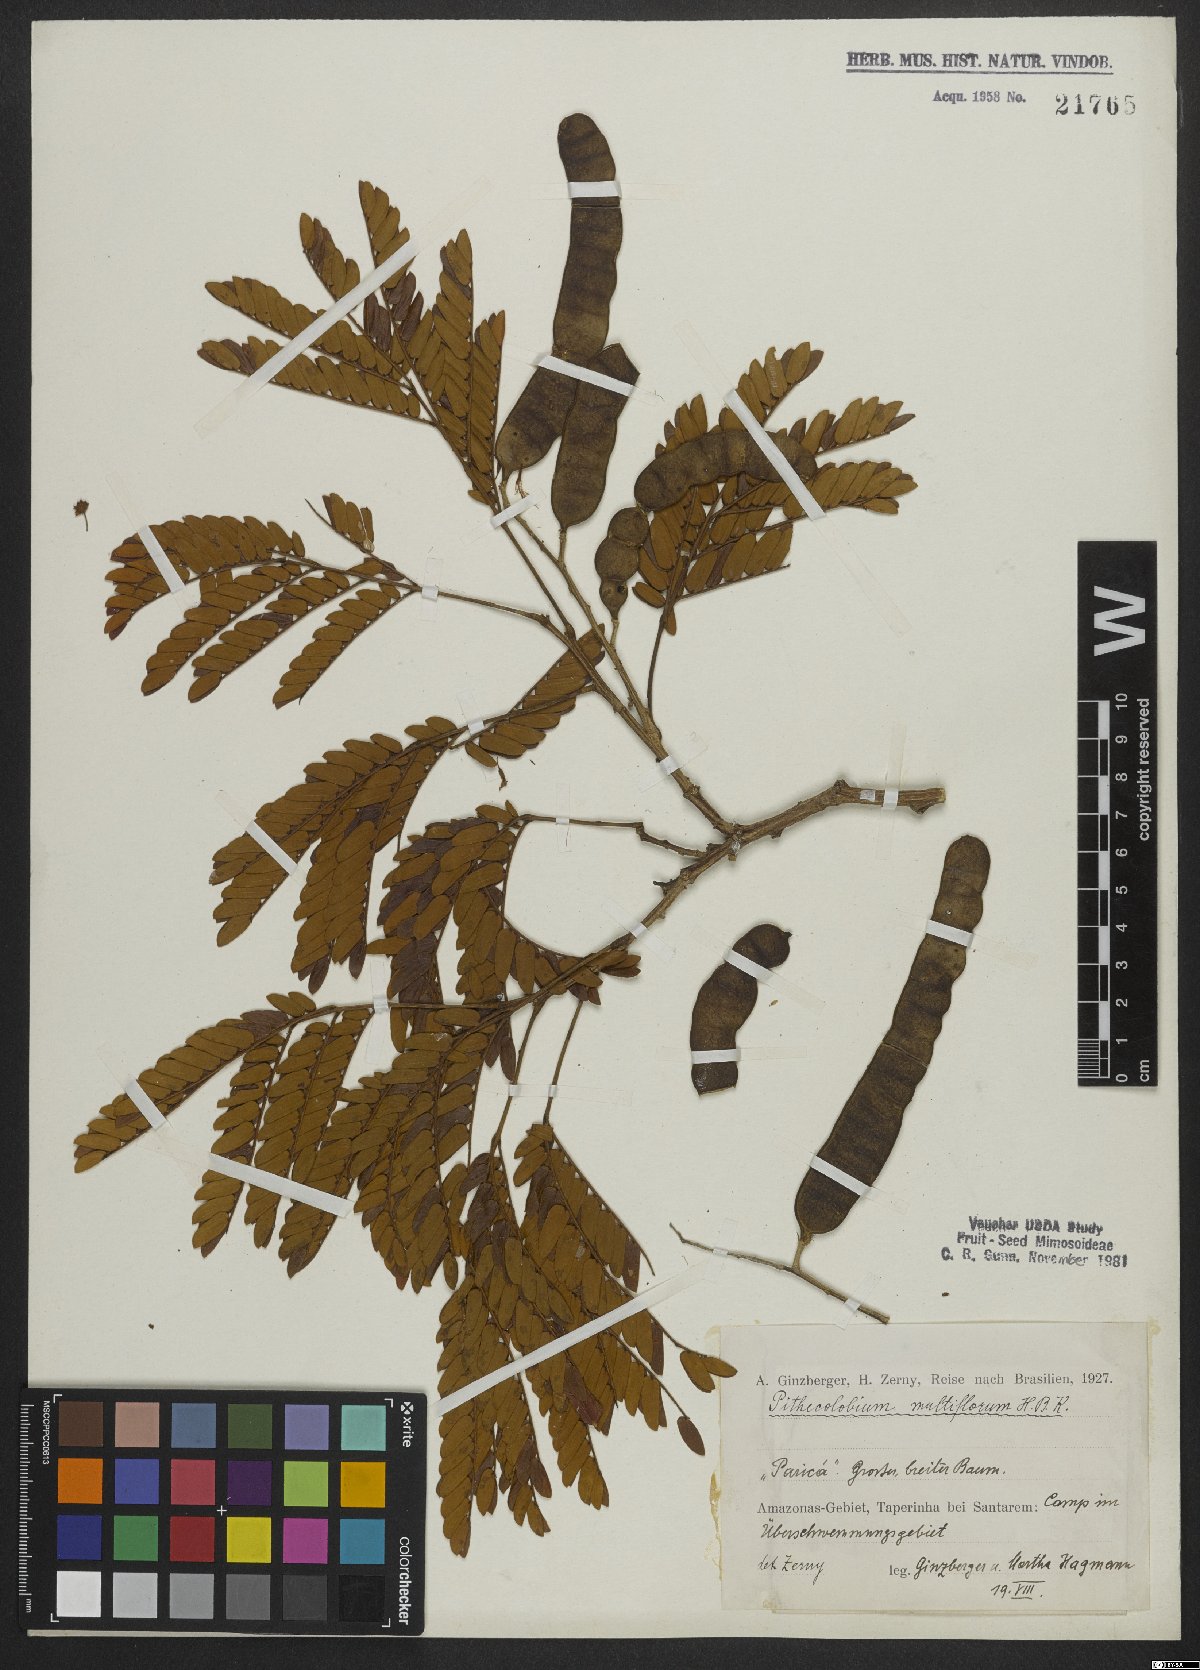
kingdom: Plantae
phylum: Tracheophyta
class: Magnoliopsida
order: Fabales
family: Fabaceae
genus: Albizia
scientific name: Albizia multiflora
